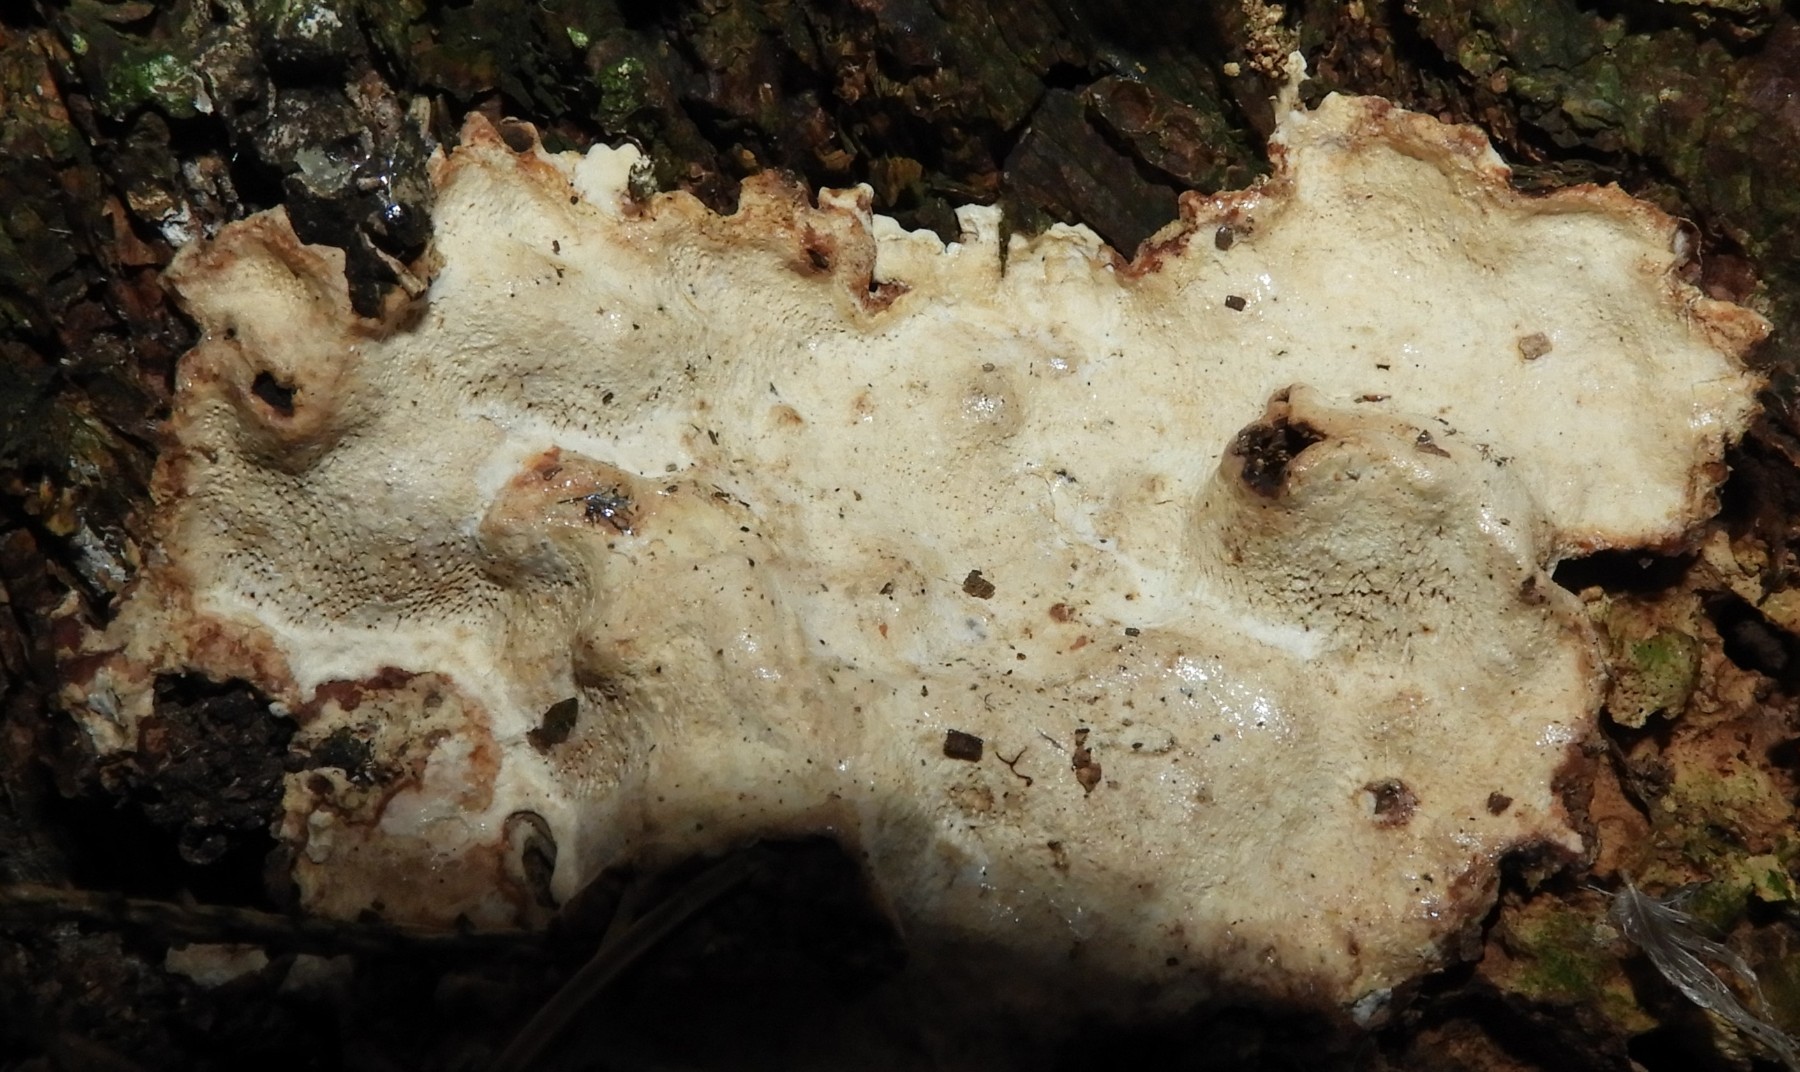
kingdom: Fungi
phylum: Basidiomycota
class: Agaricomycetes
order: Russulales
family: Bondarzewiaceae
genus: Heterobasidion
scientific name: Heterobasidion annosum
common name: almindelig rodfordærver
